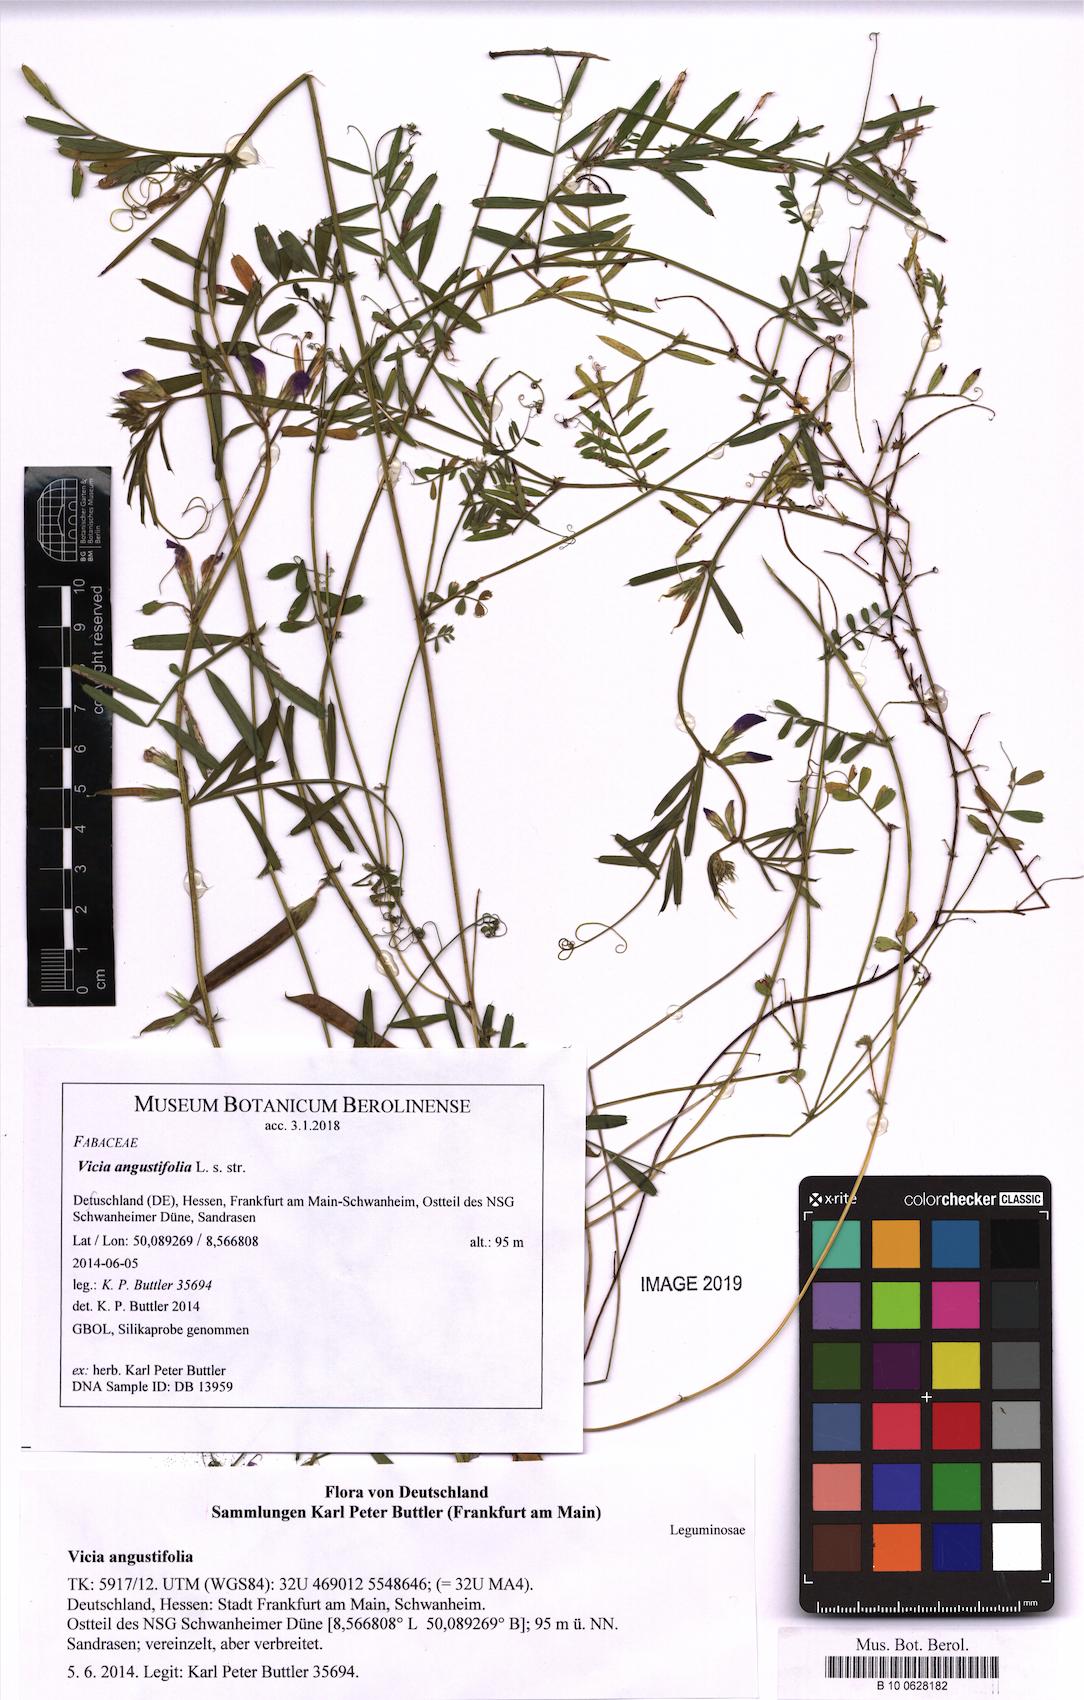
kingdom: Plantae
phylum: Tracheophyta
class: Magnoliopsida
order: Fabales
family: Fabaceae
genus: Vicia
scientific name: Vicia sativa
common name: Garden vetch
